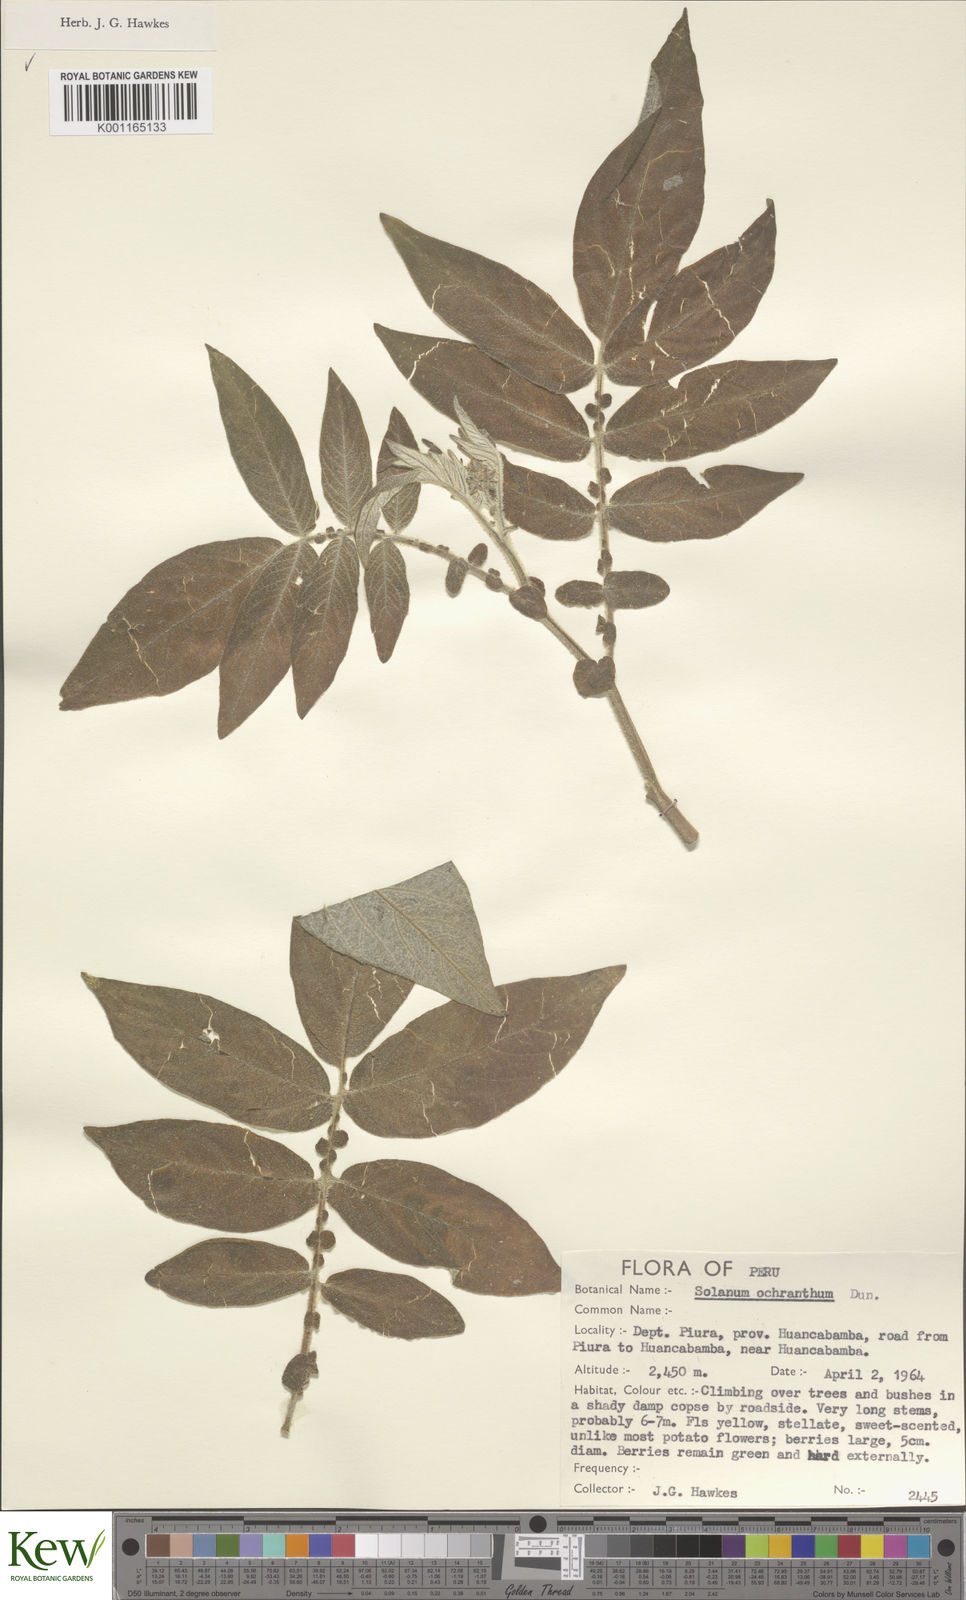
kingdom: Plantae
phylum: Tracheophyta
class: Magnoliopsida
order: Solanales
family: Solanaceae
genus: Solanum
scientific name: Solanum ochranthum
